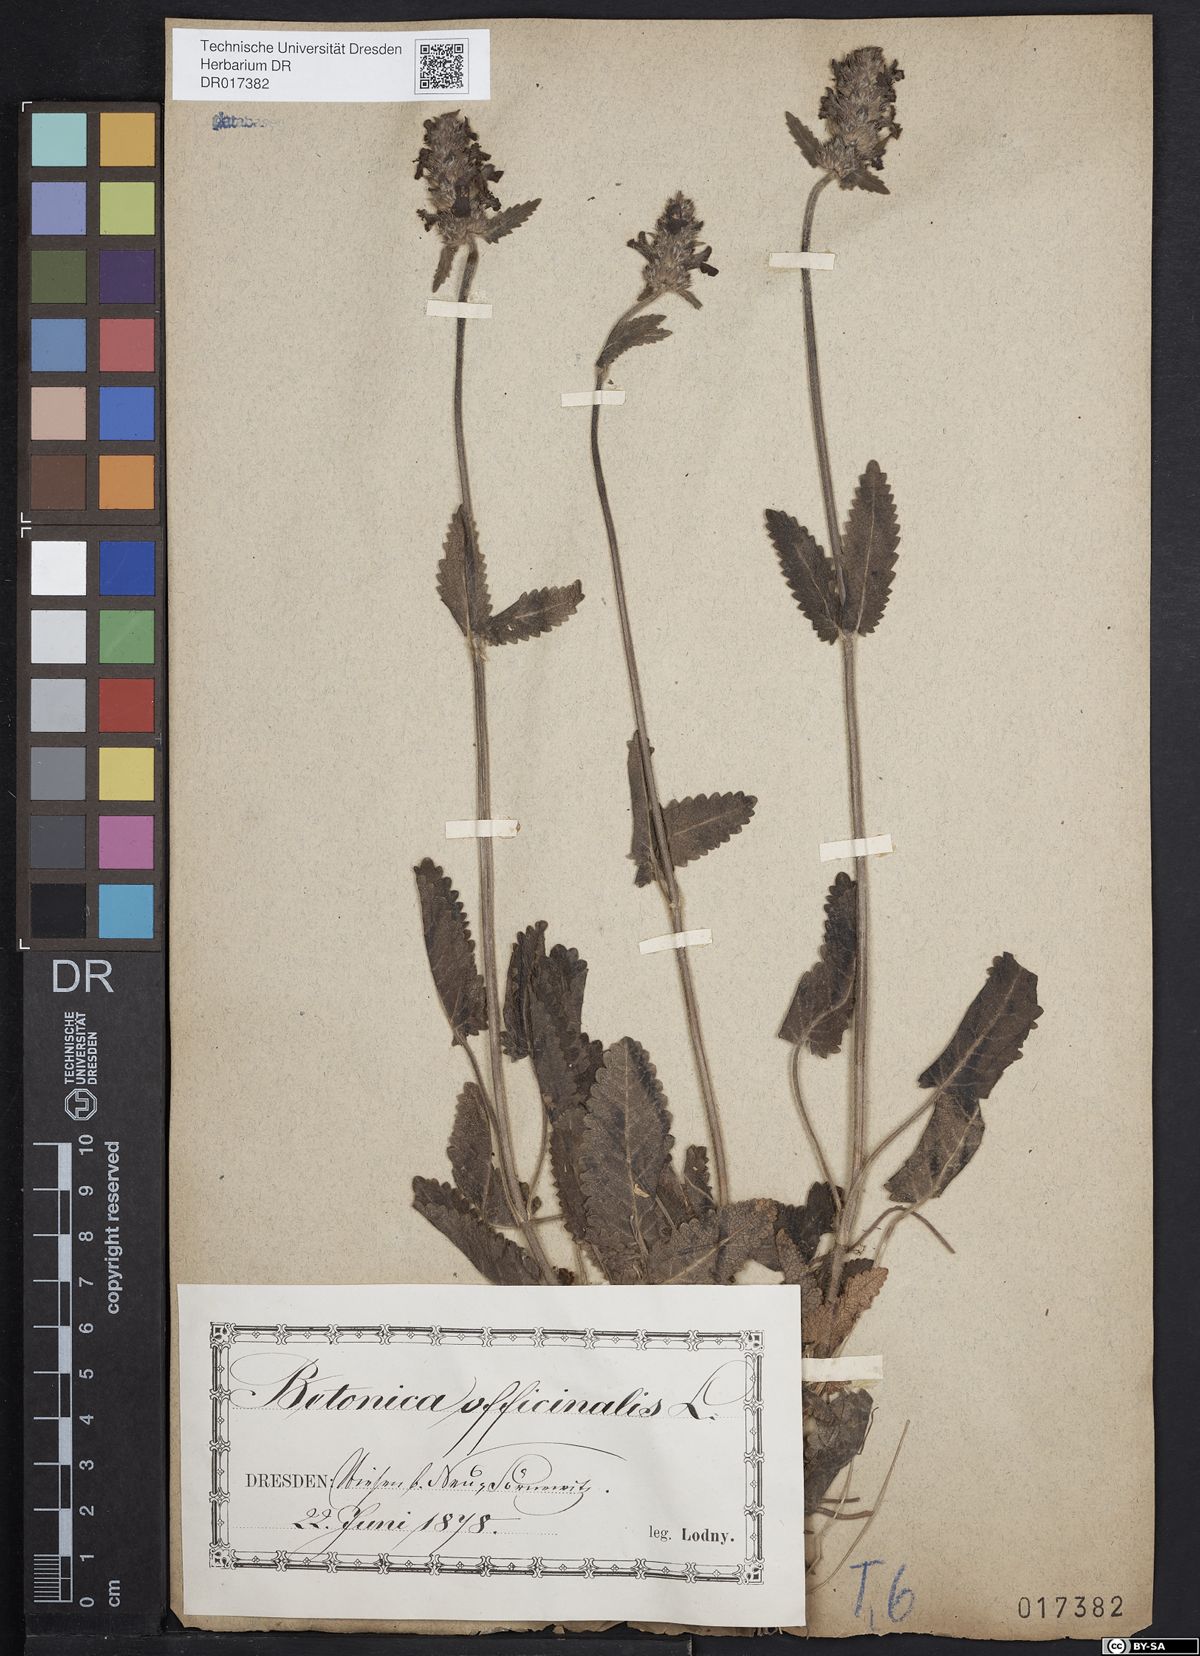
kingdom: Plantae
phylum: Tracheophyta
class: Magnoliopsida
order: Lamiales
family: Lamiaceae
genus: Betonica
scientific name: Betonica officinalis
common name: Bishop's-wort
